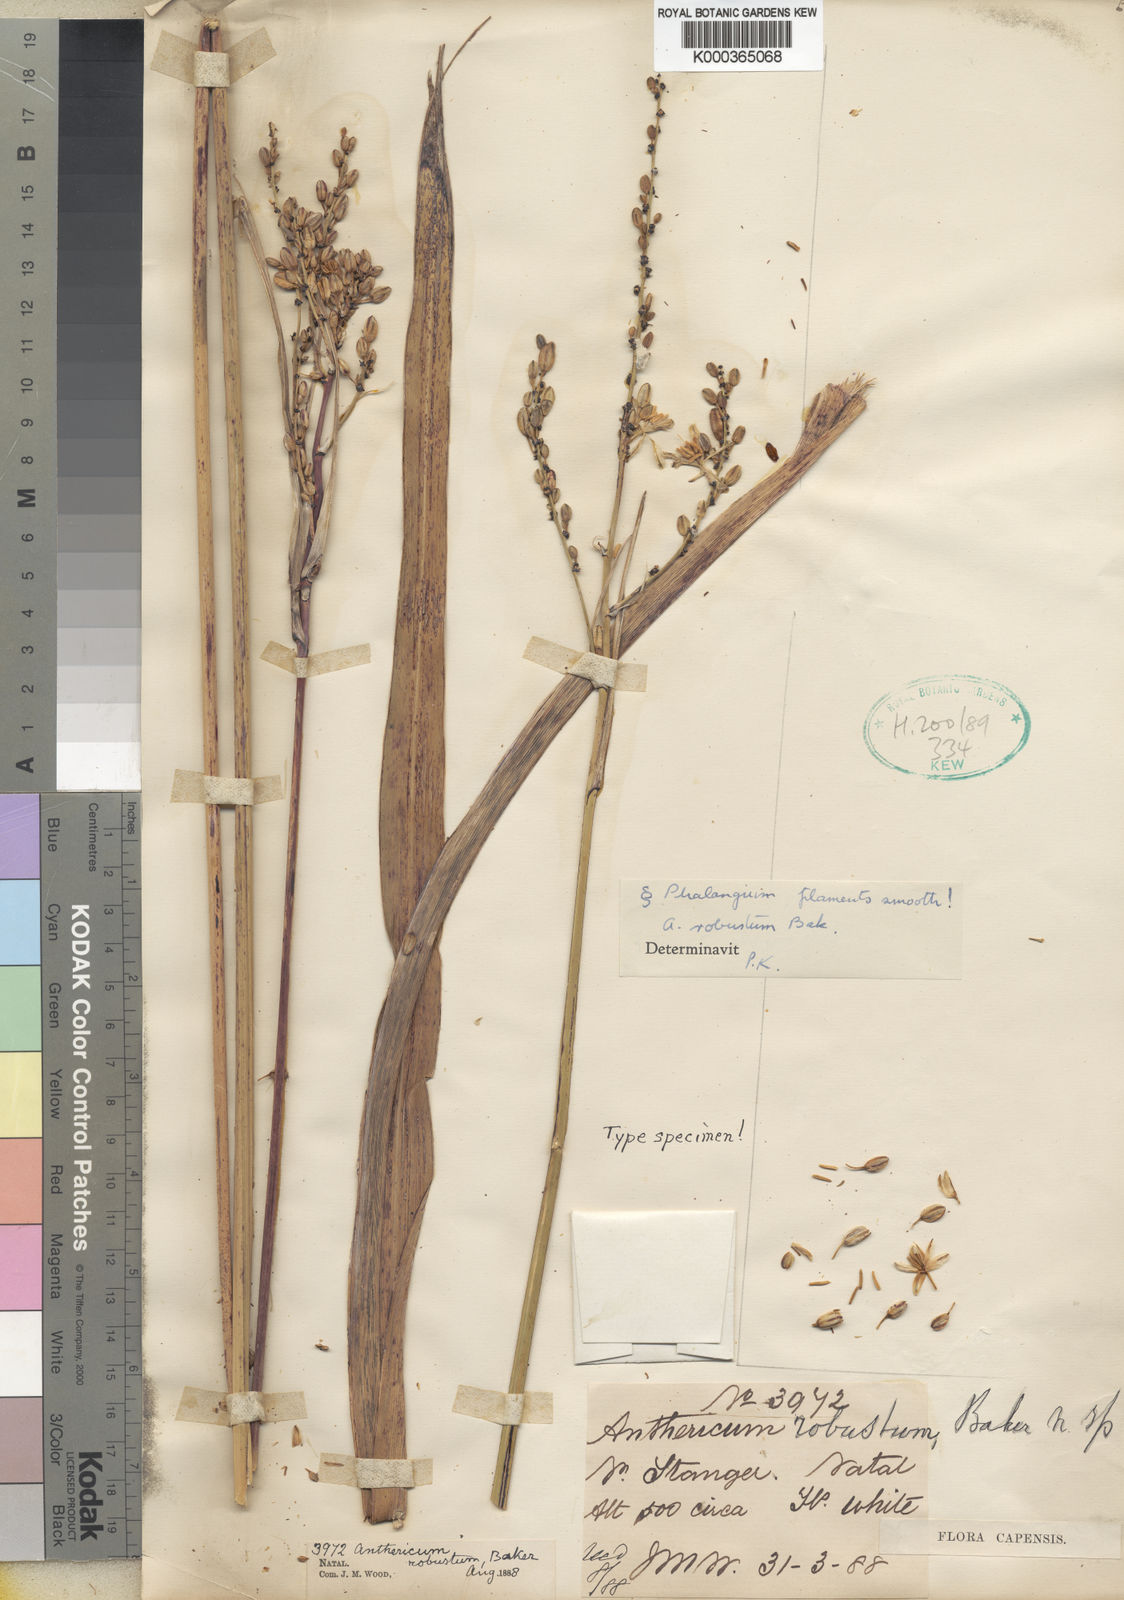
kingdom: Plantae
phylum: Tracheophyta
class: Liliopsida
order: Asparagales
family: Asparagaceae
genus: Chlorophytum
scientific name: Chlorophytum angulicaule
